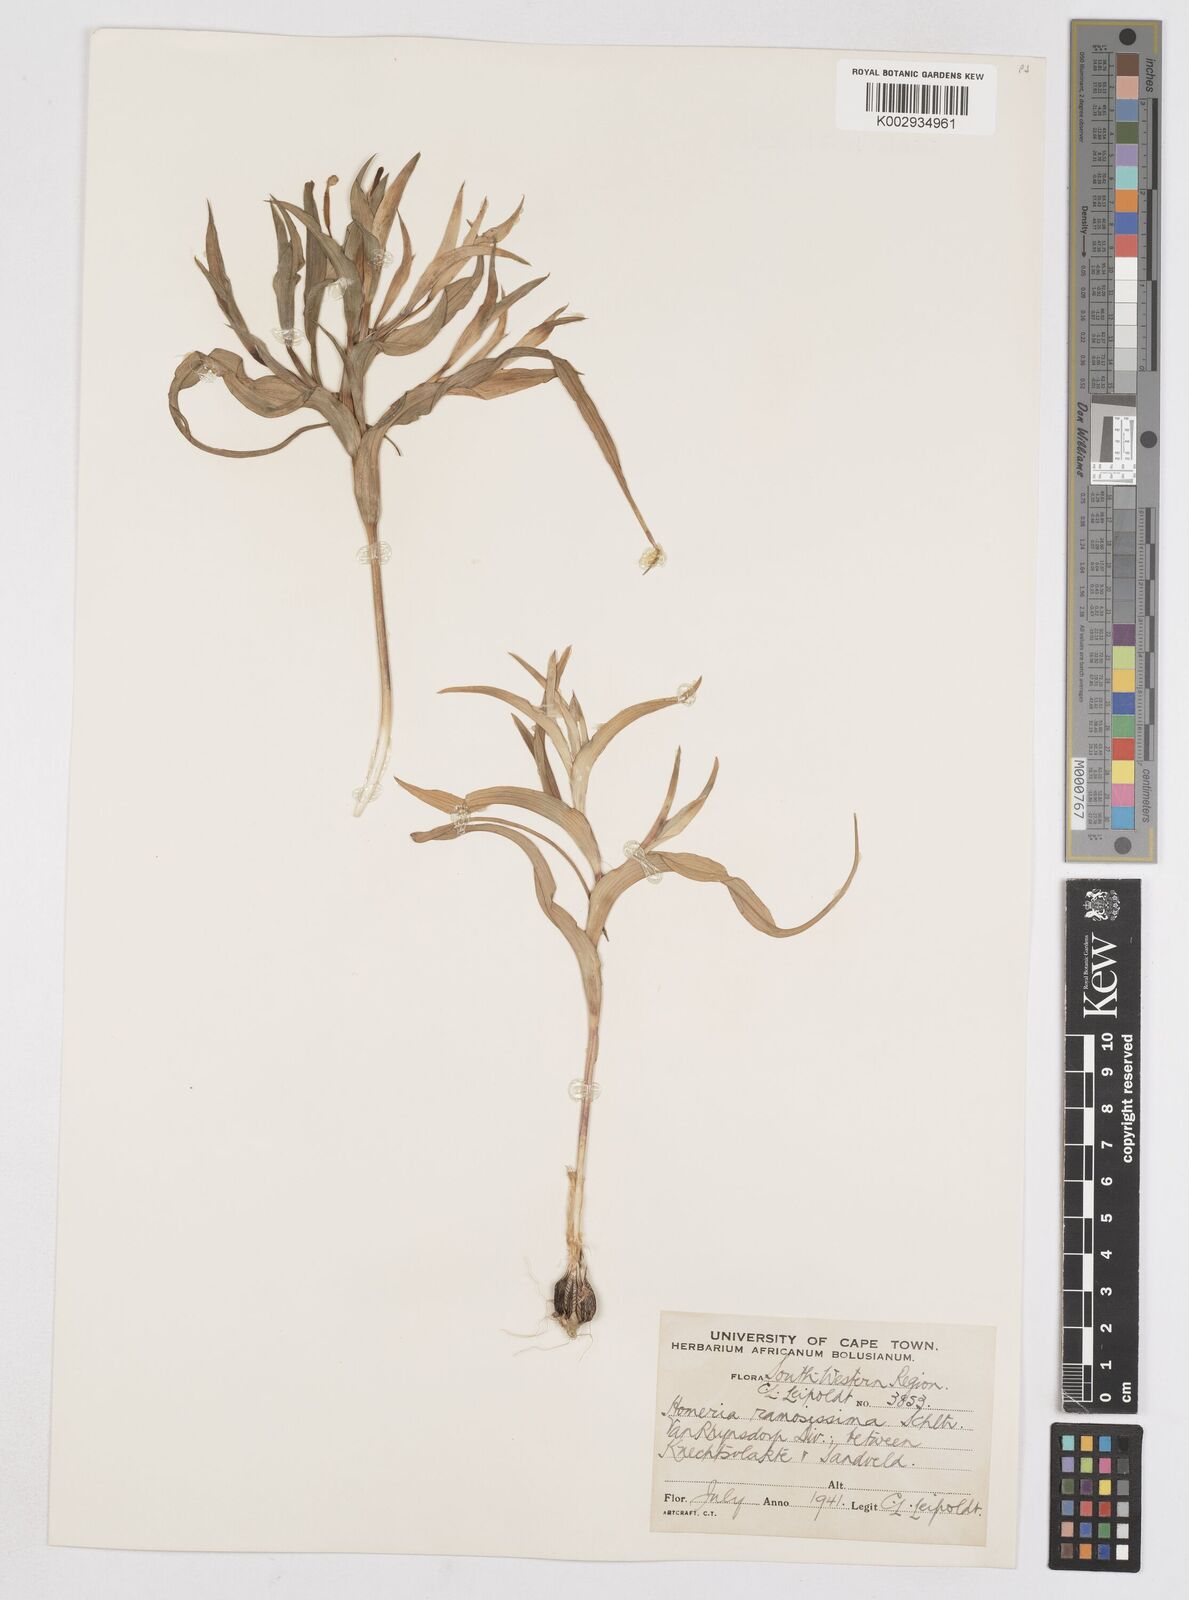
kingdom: Plantae
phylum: Tracheophyta
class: Liliopsida
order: Asparagales
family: Iridaceae
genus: Moraea
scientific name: Moraea ramosissima
